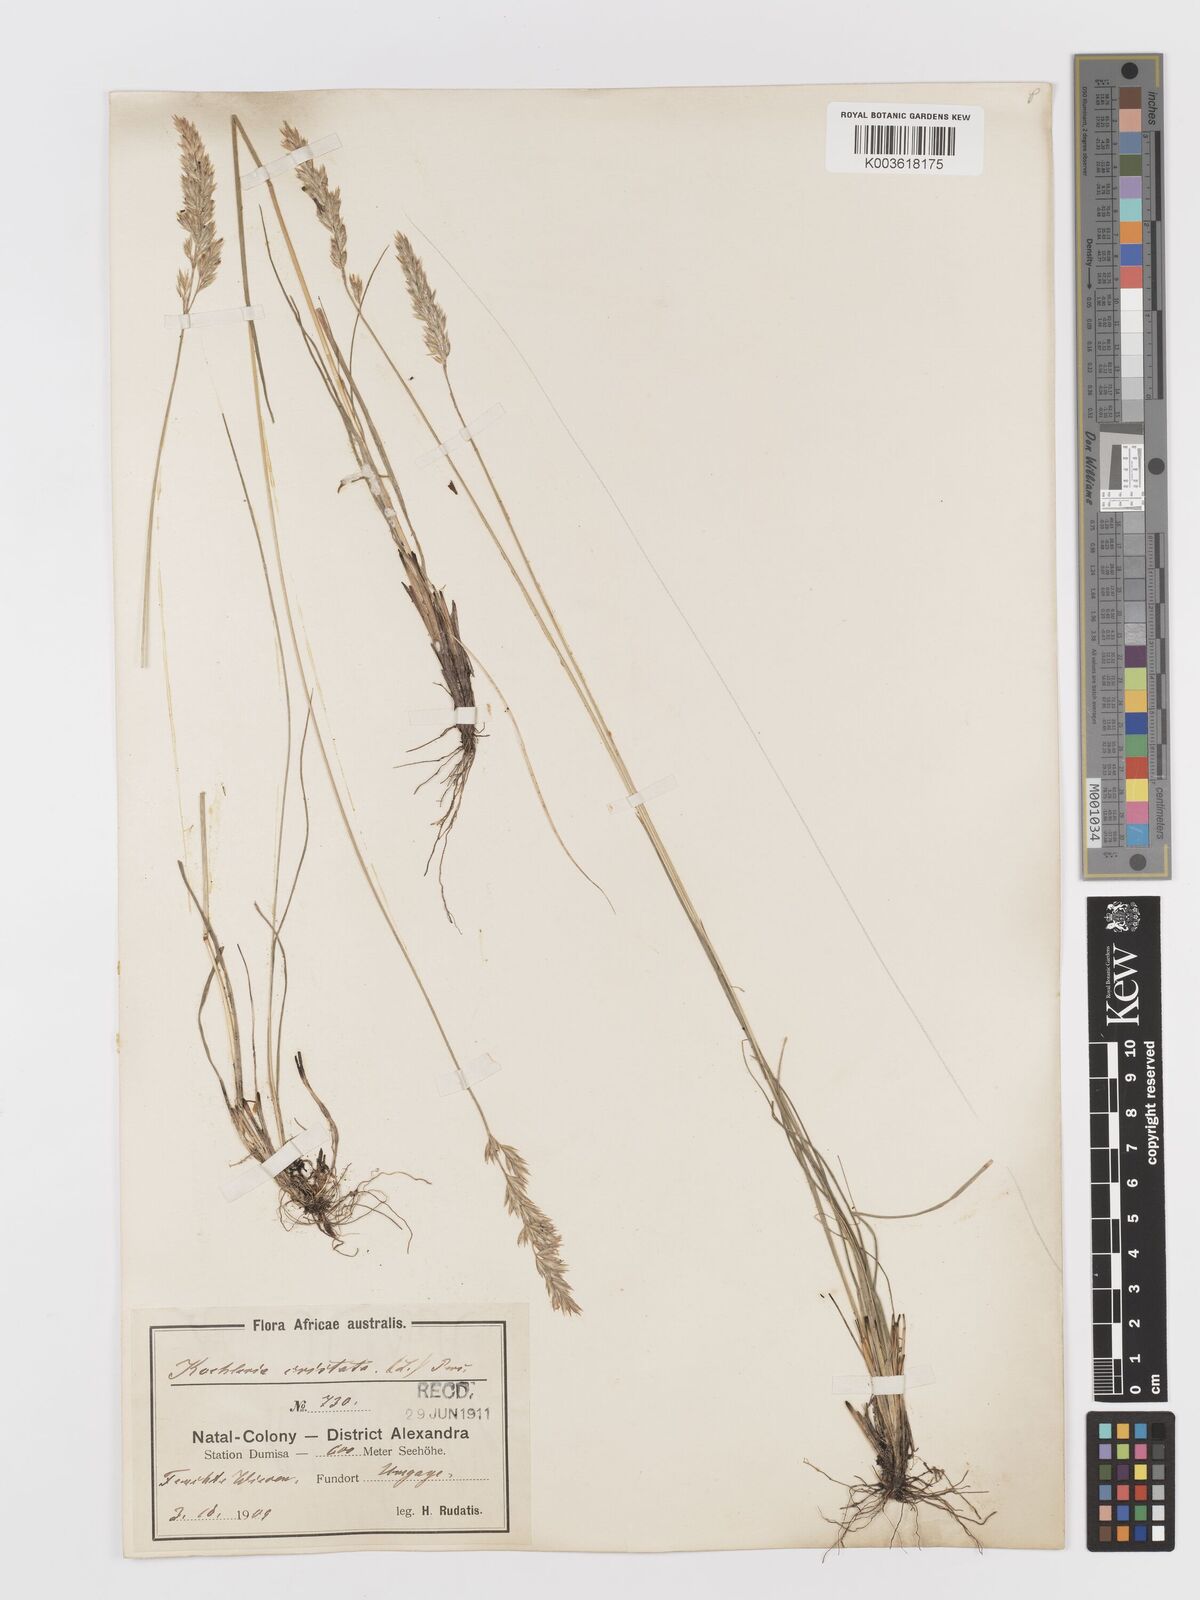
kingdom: Plantae
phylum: Tracheophyta
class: Liliopsida
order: Poales
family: Poaceae
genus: Koeleria
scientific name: Koeleria capensis
